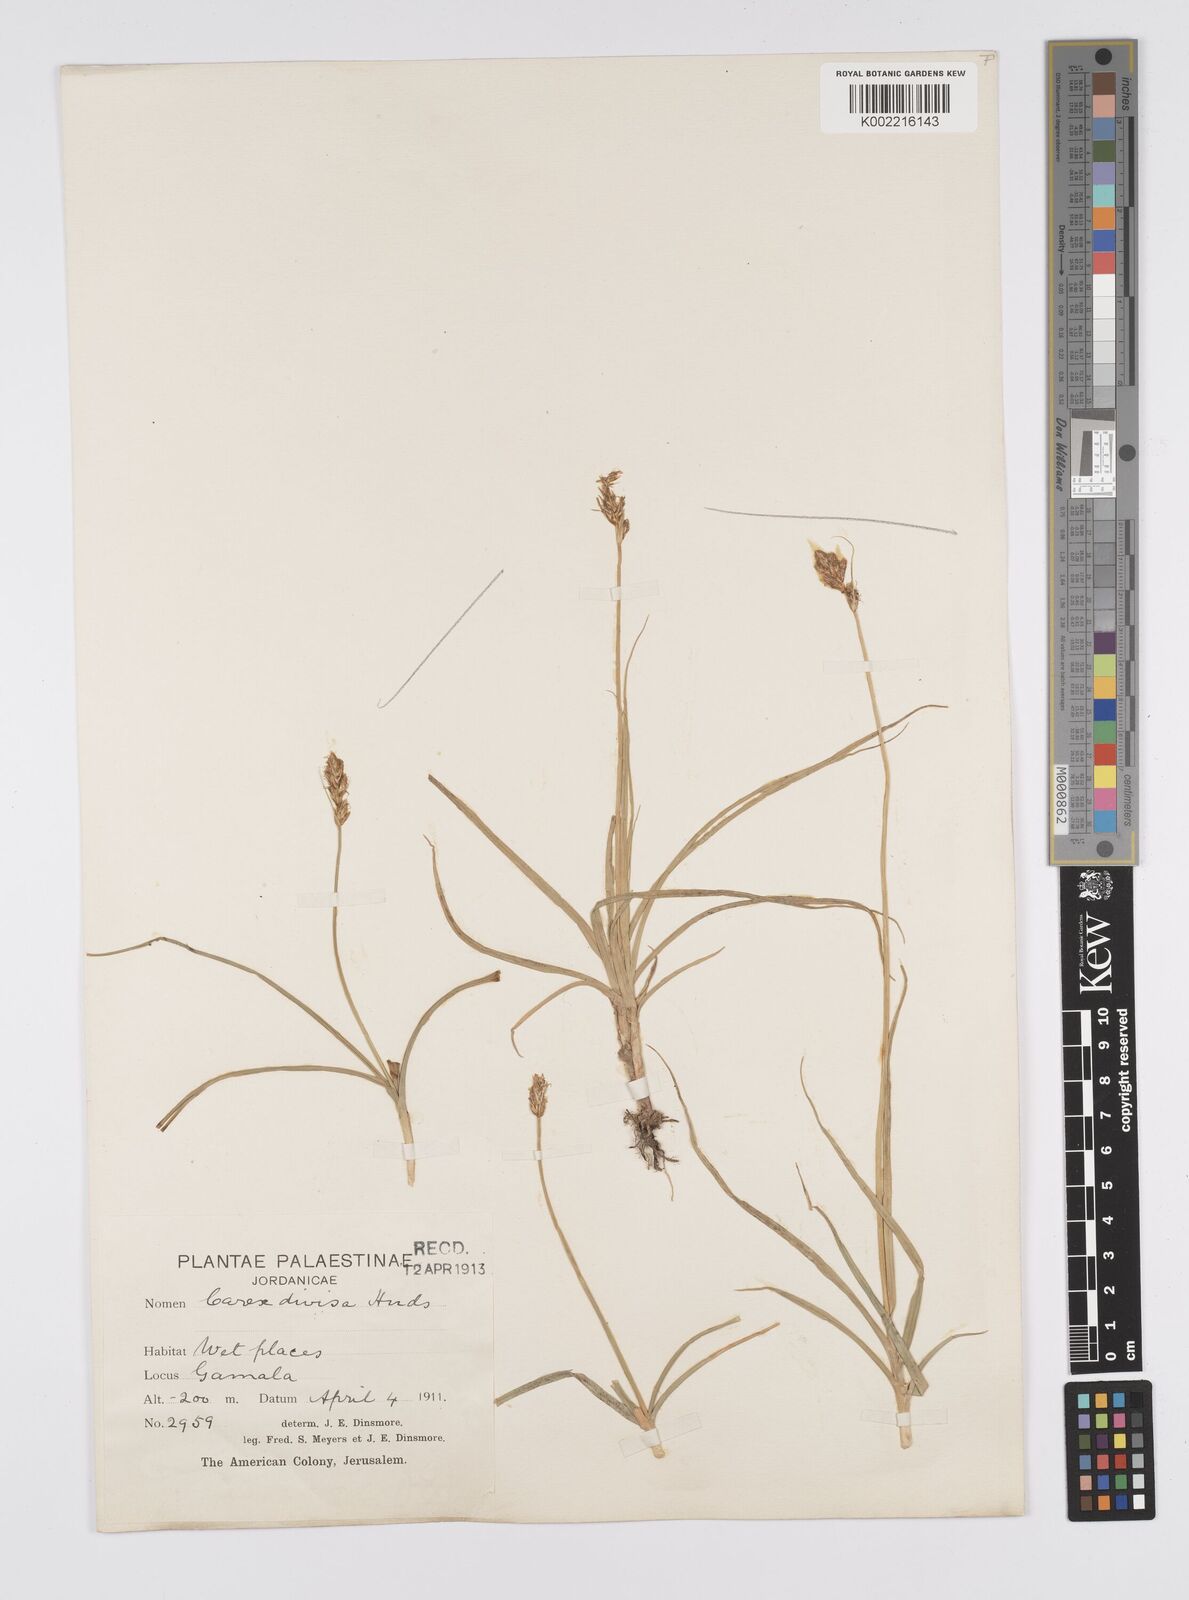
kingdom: Plantae
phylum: Tracheophyta
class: Liliopsida
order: Poales
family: Cyperaceae
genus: Carex
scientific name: Carex divisa
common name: Divided sedge
